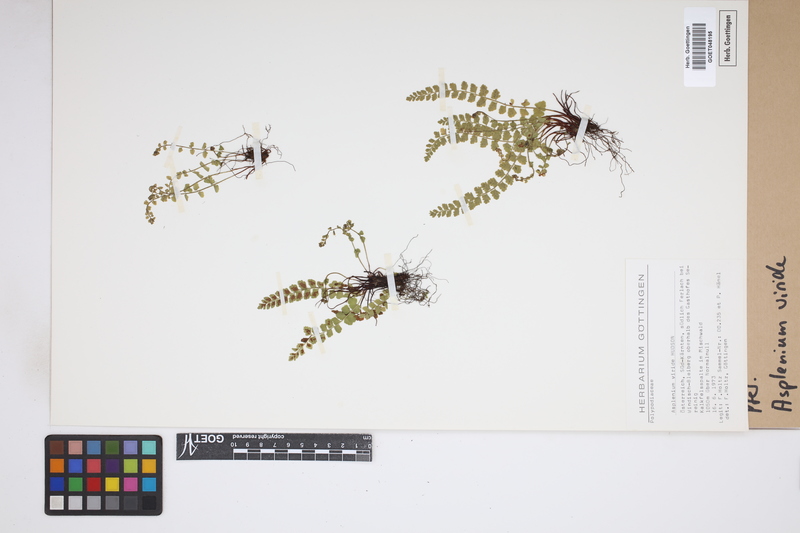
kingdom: Plantae
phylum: Tracheophyta
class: Polypodiopsida
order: Polypodiales
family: Aspleniaceae
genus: Asplenium
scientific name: Asplenium viride
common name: Green spleenwort
